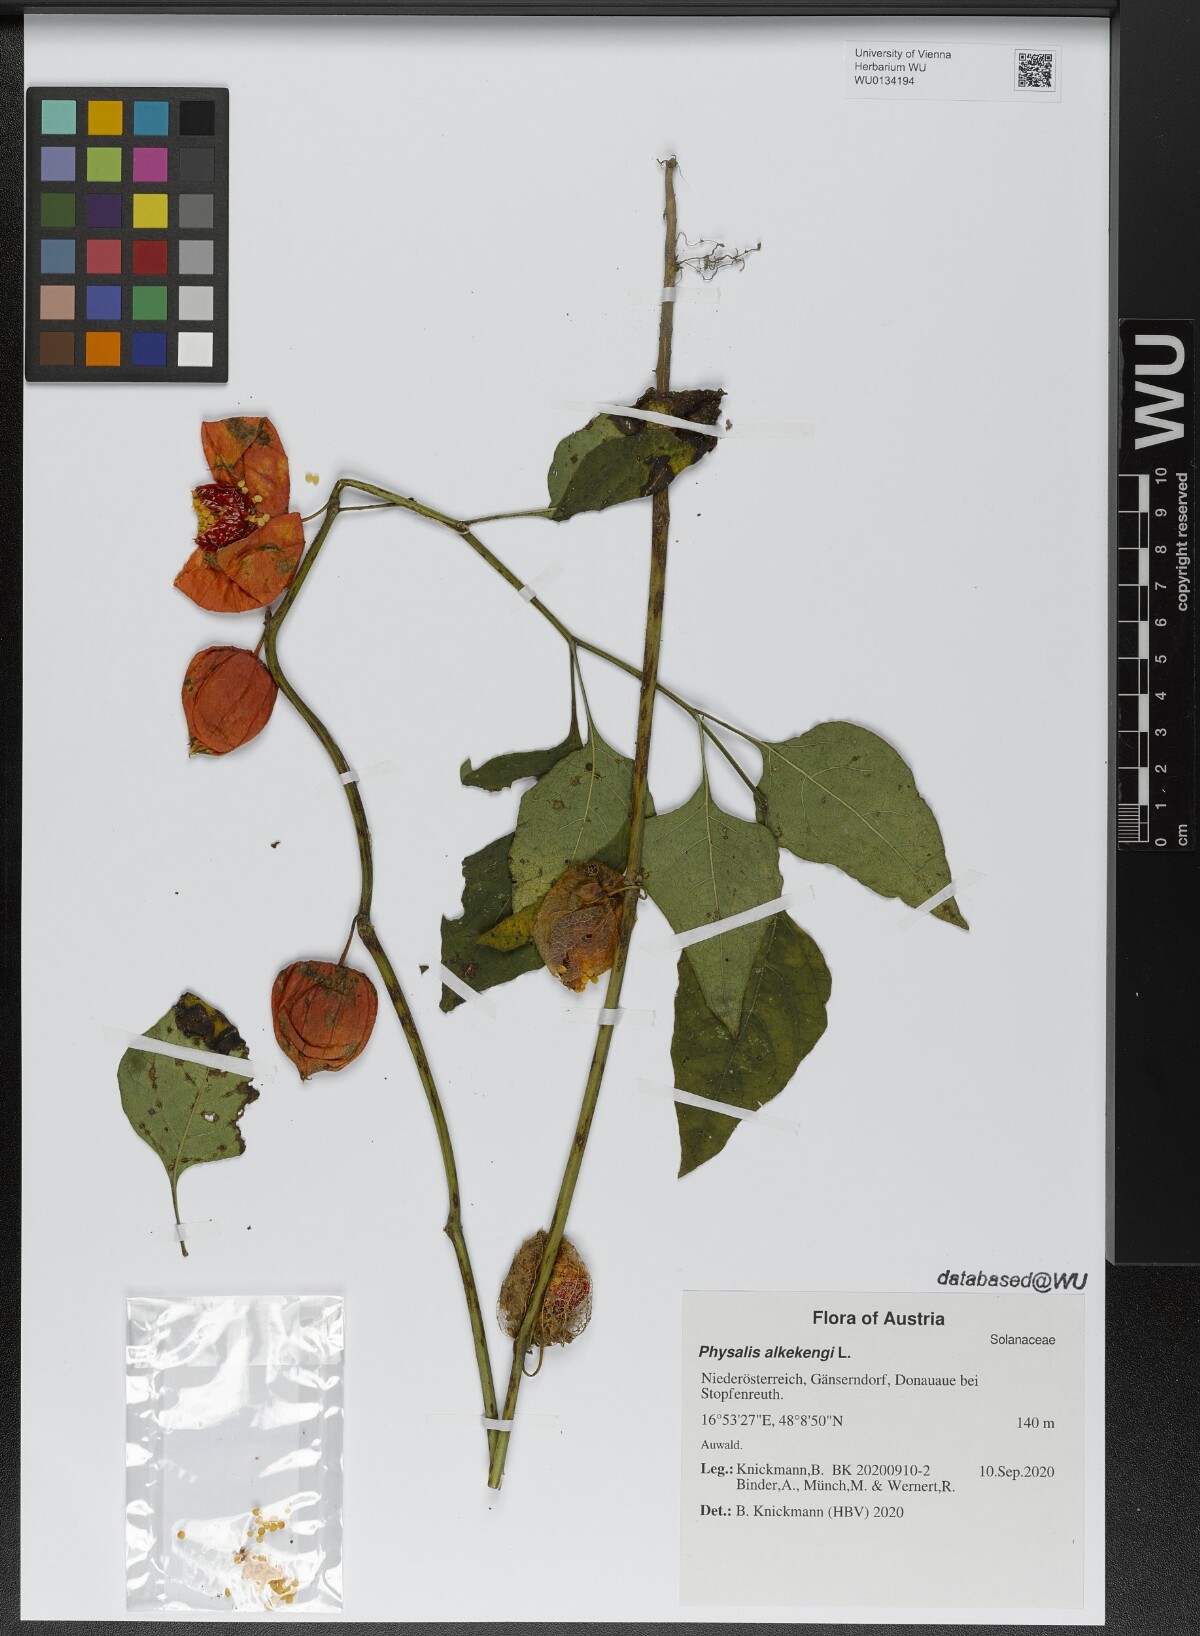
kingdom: Plantae
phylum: Tracheophyta
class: Magnoliopsida
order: Solanales
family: Solanaceae
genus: Alkekengi
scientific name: Alkekengi officinarum
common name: Japanese-lantern
